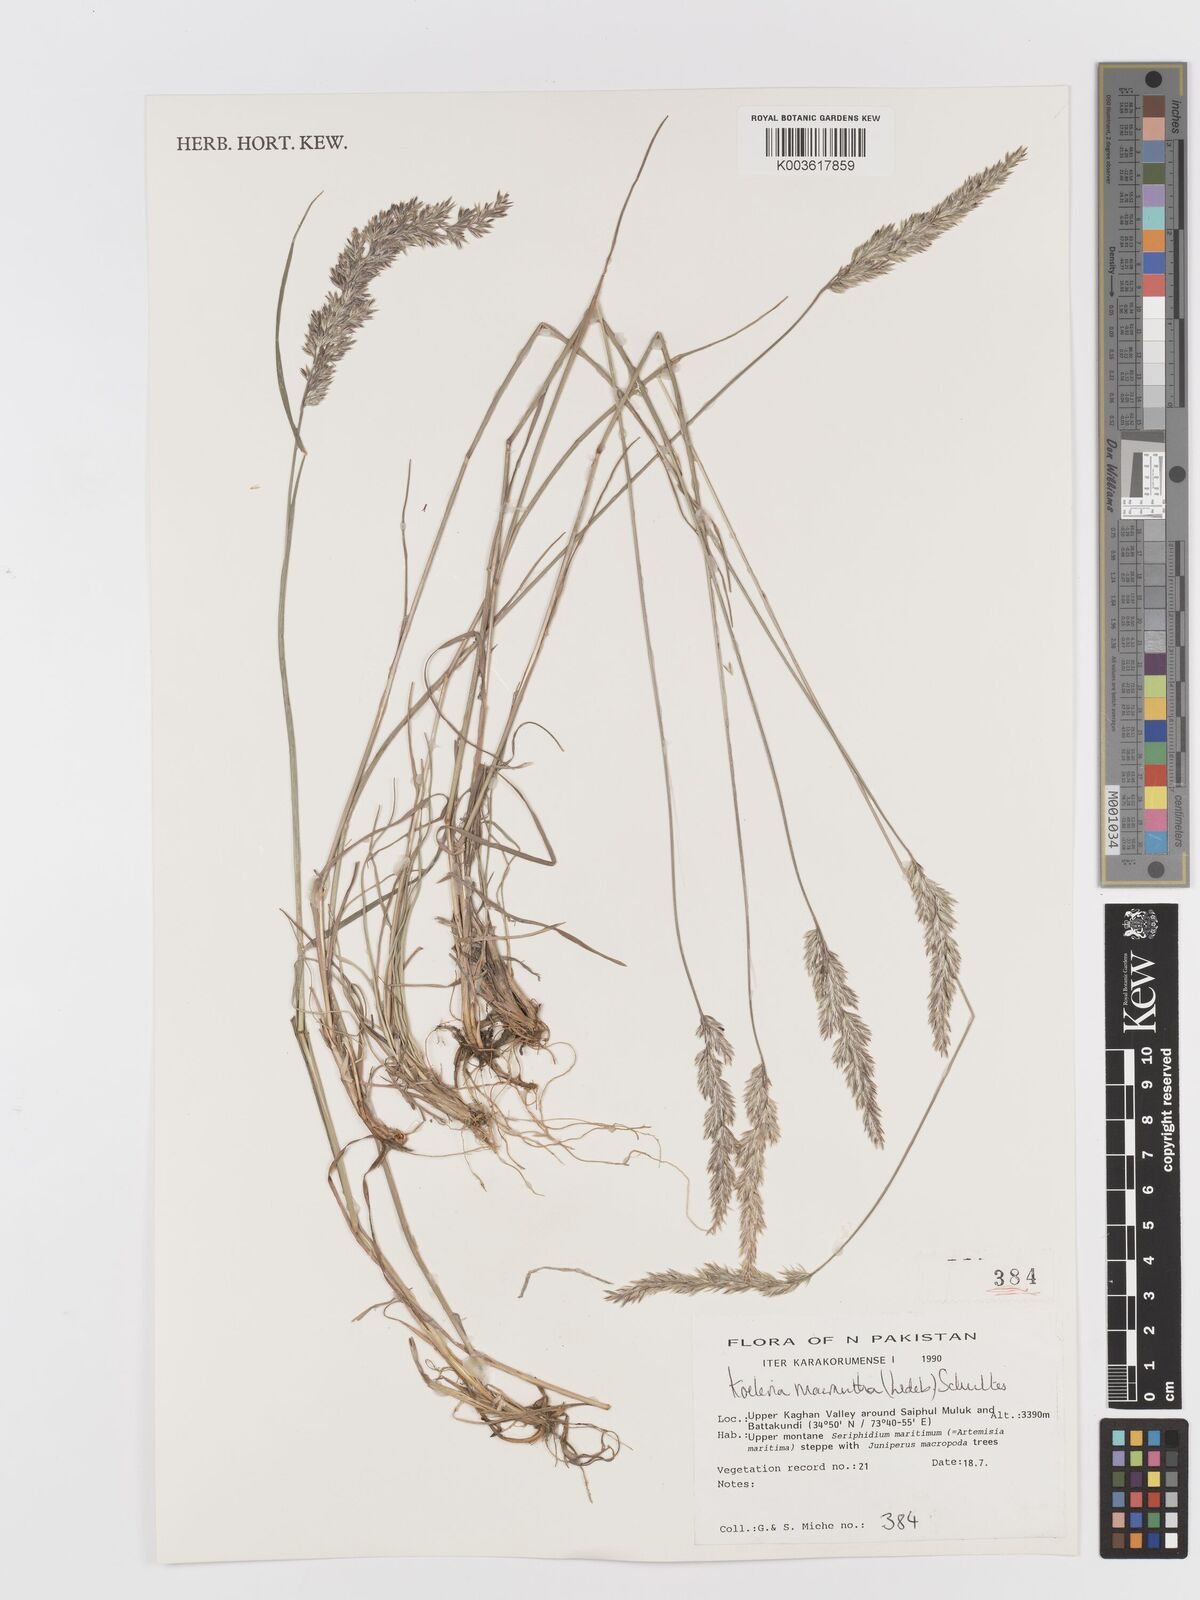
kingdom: Plantae
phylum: Tracheophyta
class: Liliopsida
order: Poales
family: Poaceae
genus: Koeleria
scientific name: Koeleria macrantha
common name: Crested hair-grass
